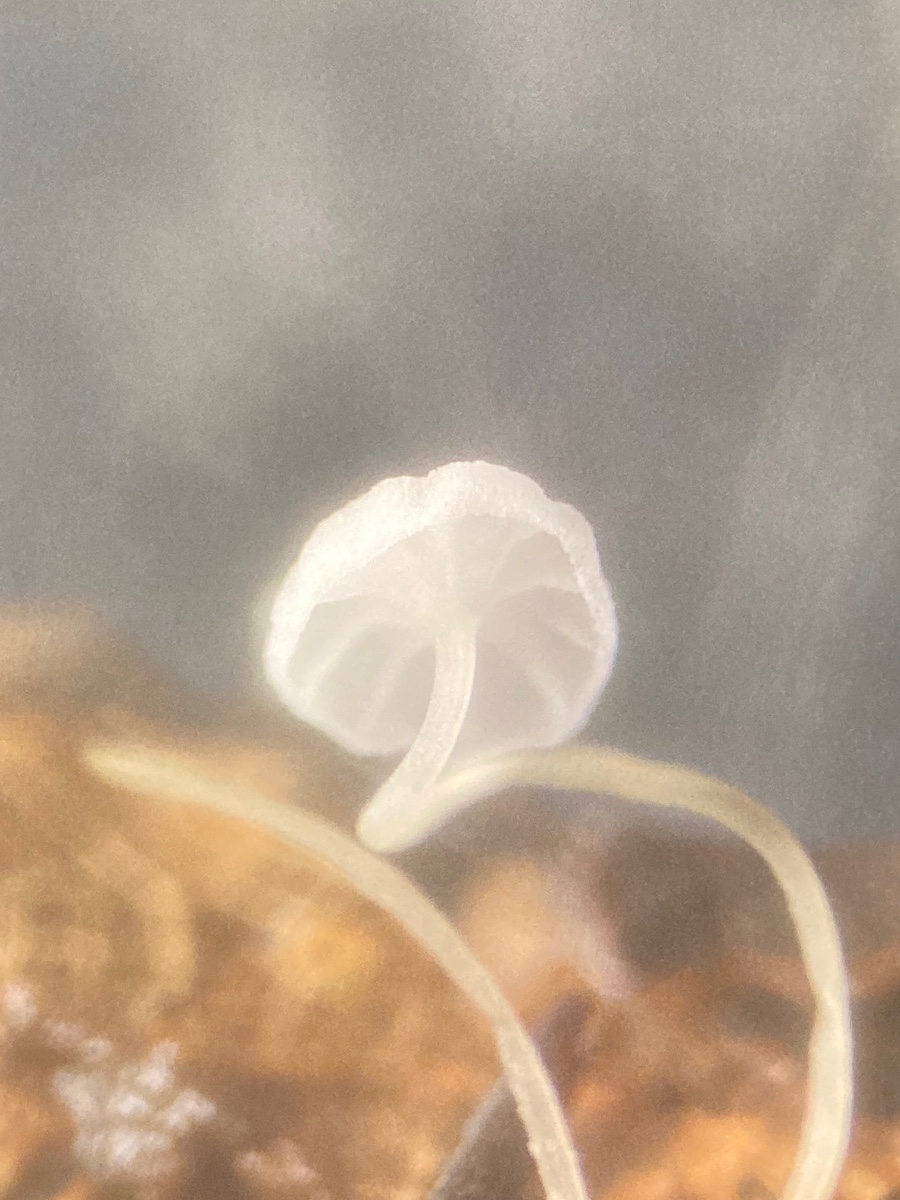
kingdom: Fungi
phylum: Basidiomycota
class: Agaricomycetes
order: Agaricales
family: Mycenaceae
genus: Mycena
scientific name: Mycena polyadelpha
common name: egeblads-huesvamp
